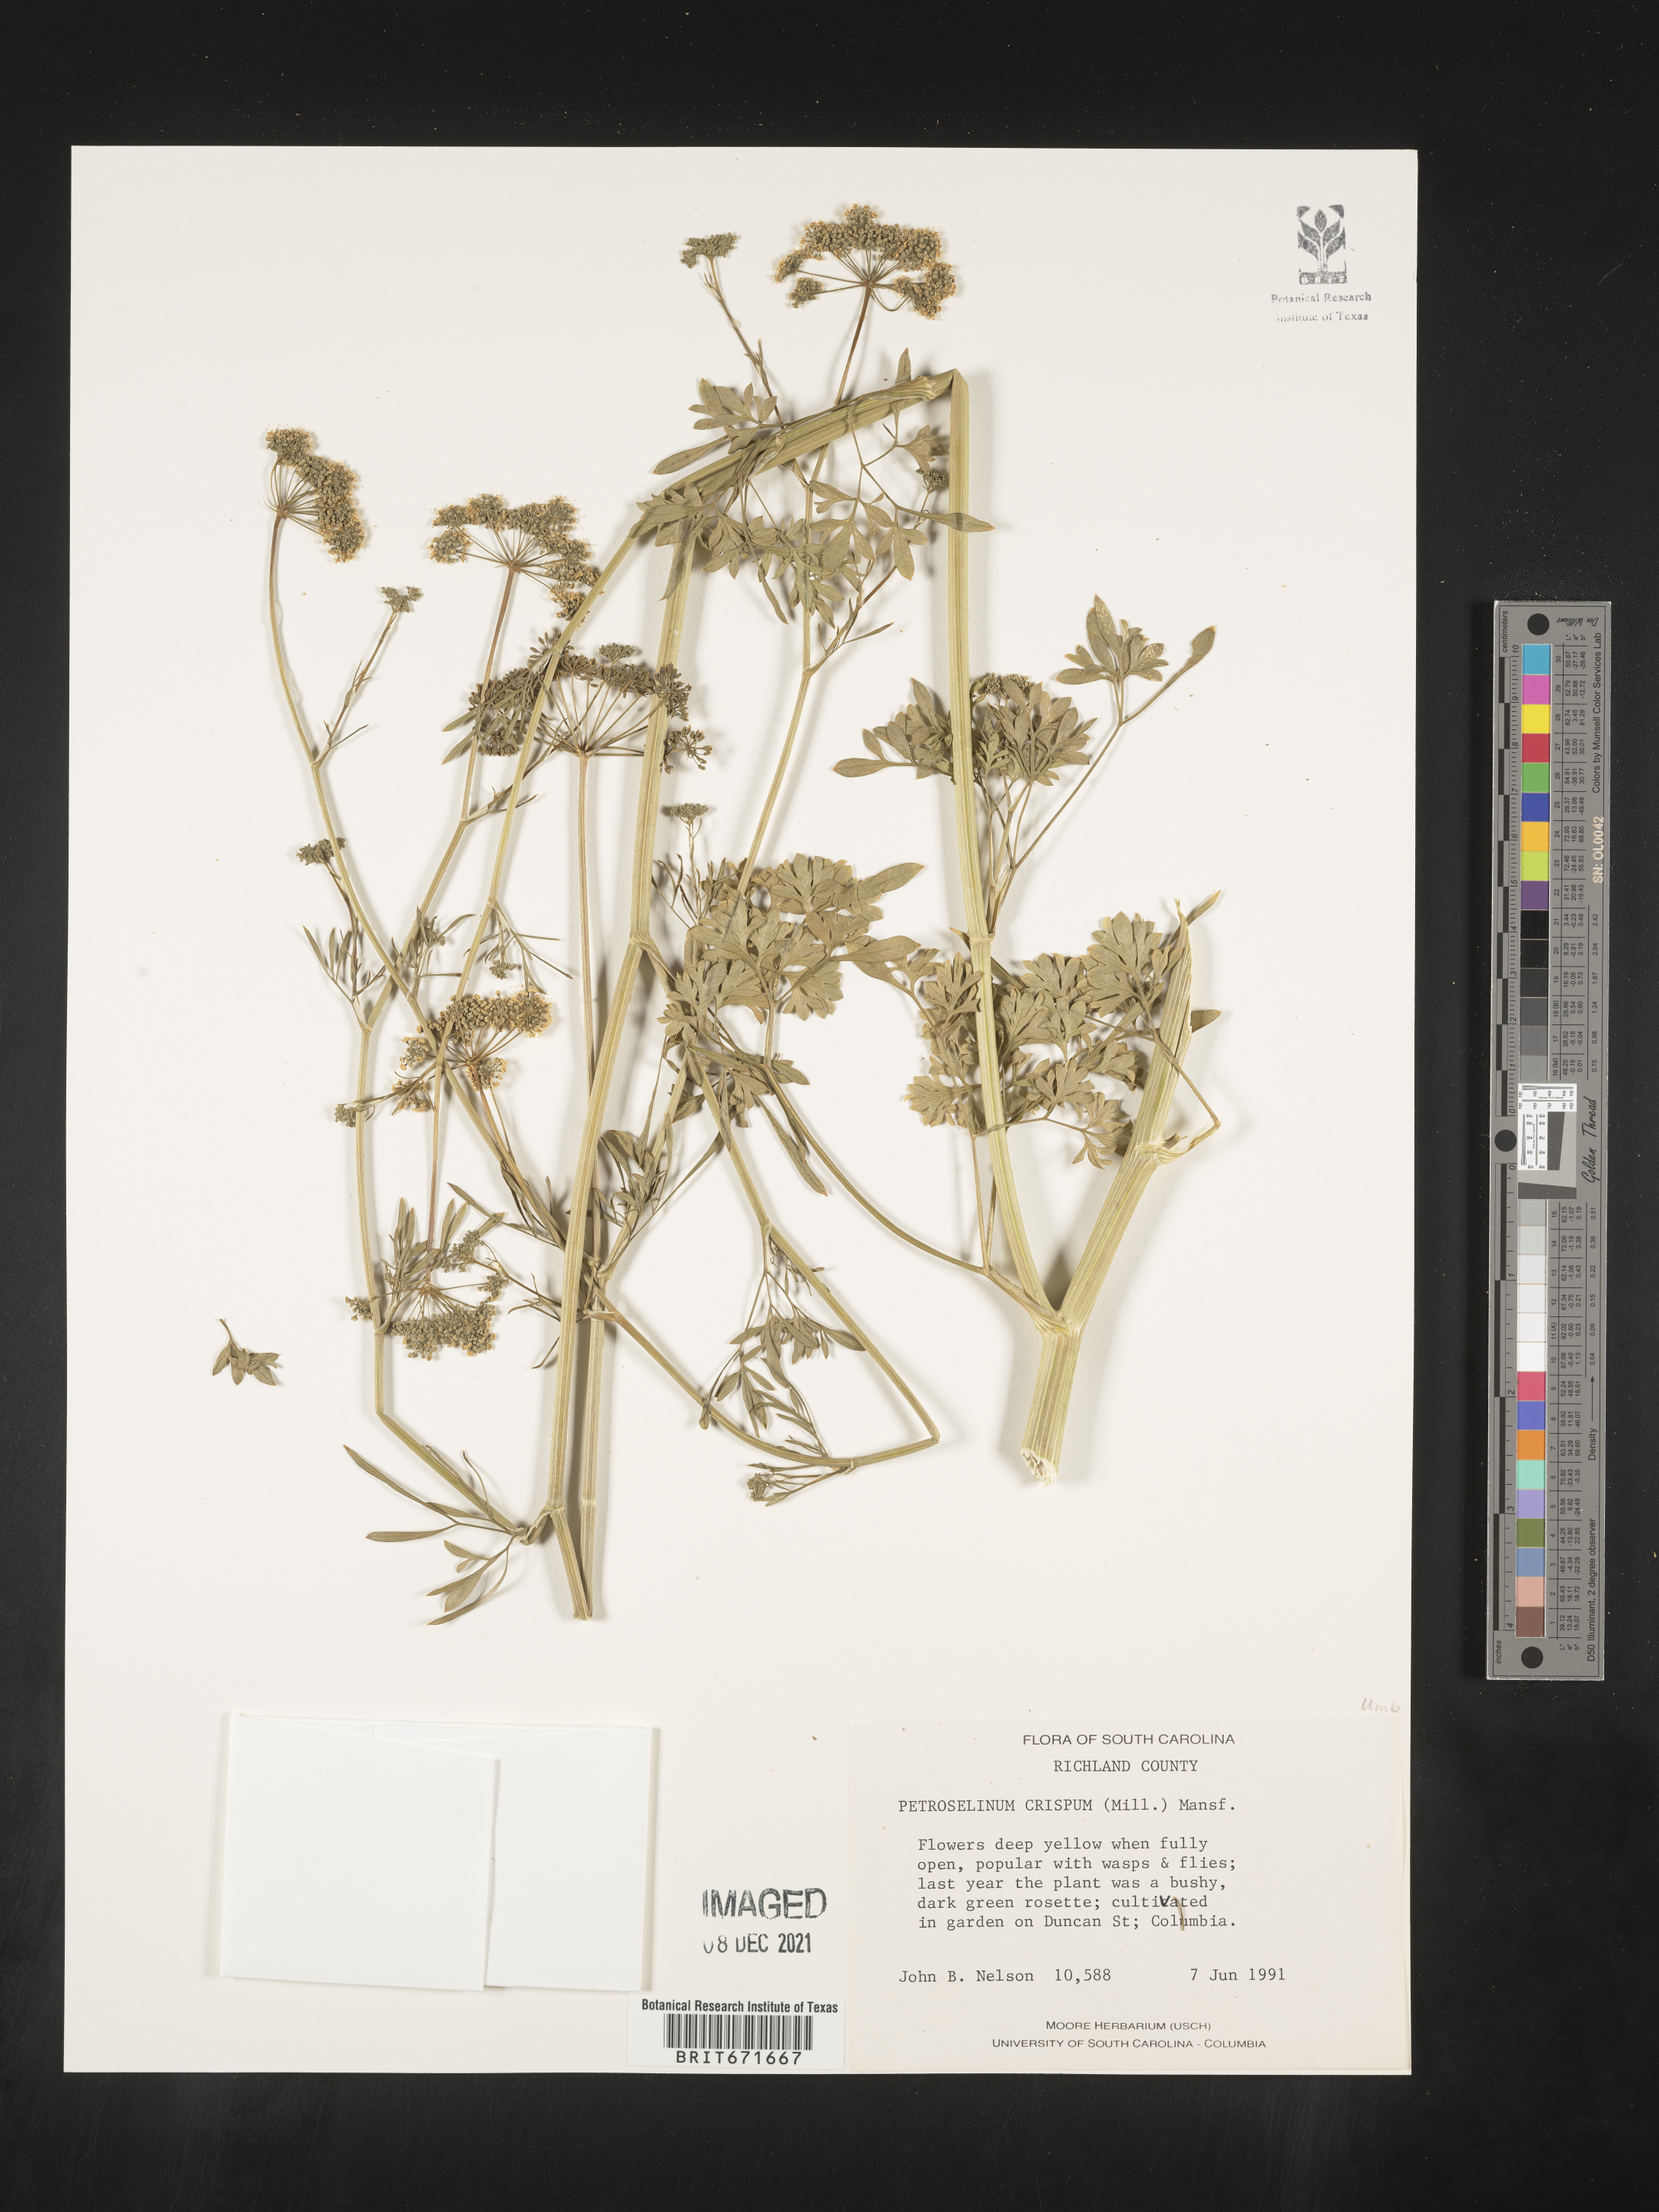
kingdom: Plantae
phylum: Tracheophyta
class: Magnoliopsida
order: Apiales
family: Apiaceae
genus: Petroselinum
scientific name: Petroselinum
